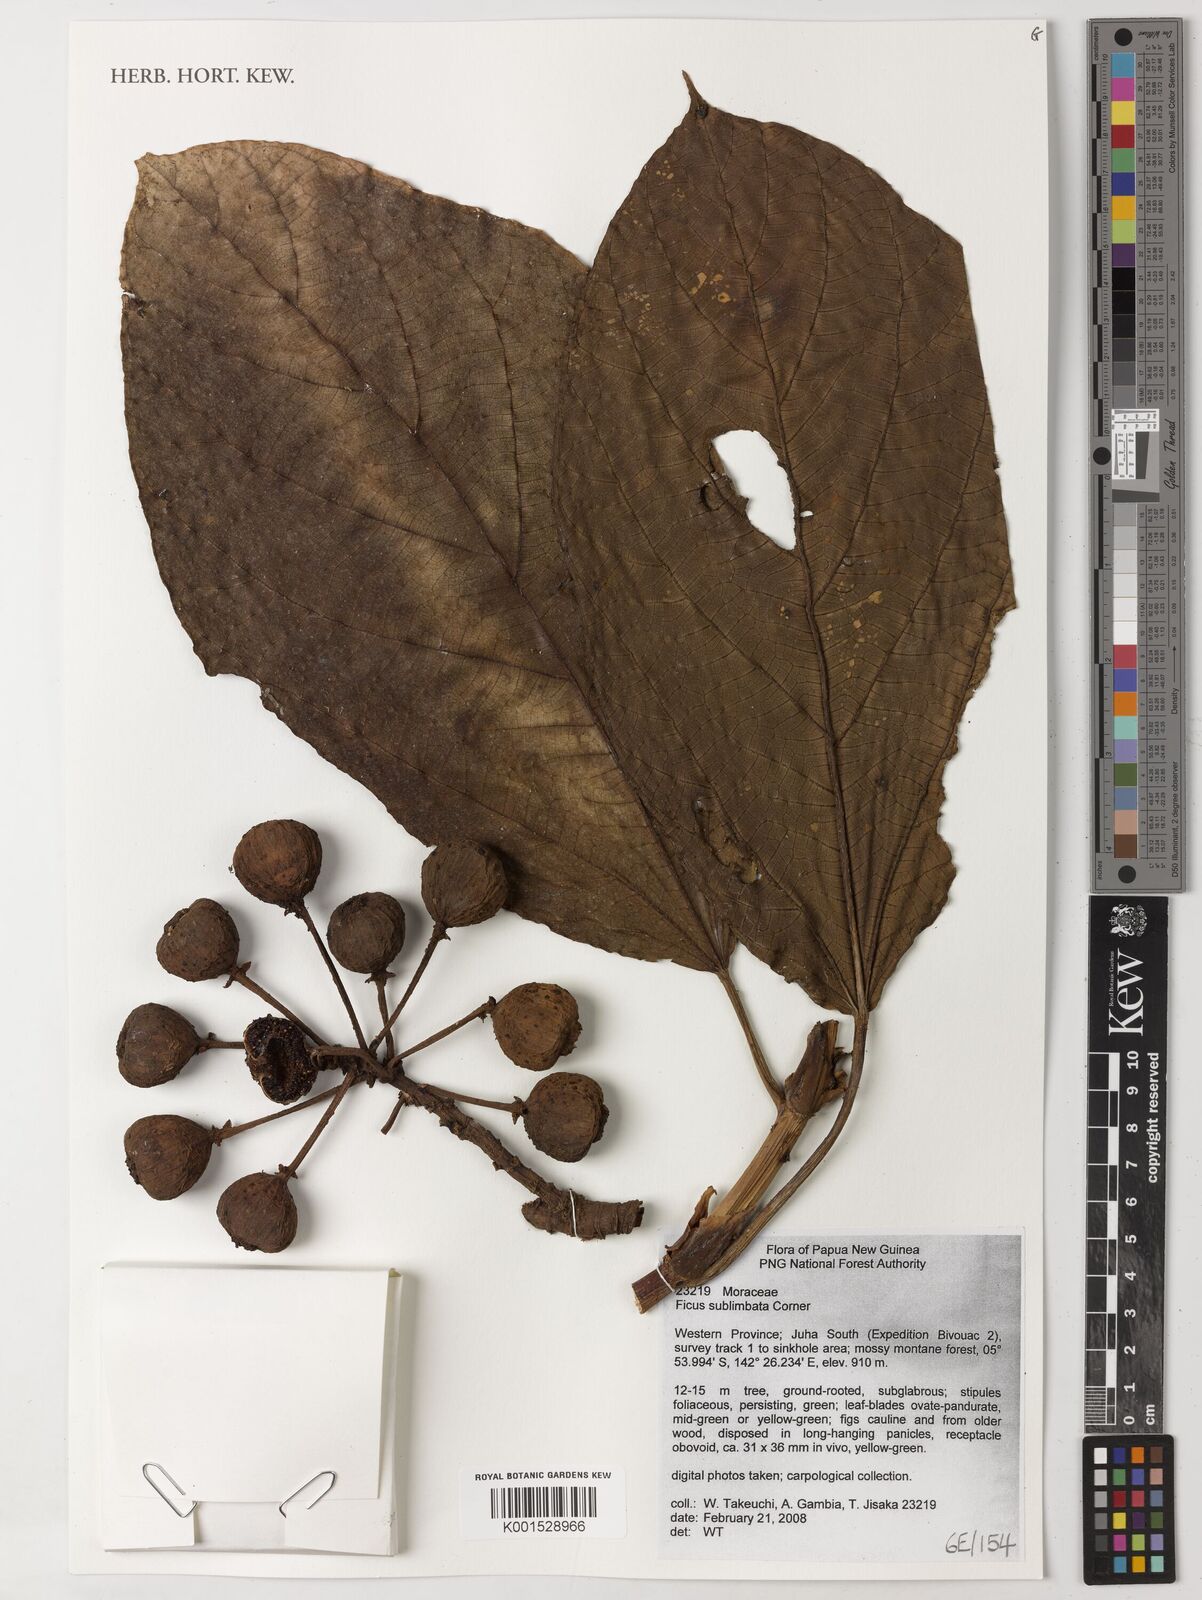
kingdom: Plantae
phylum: Tracheophyta
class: Magnoliopsida
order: Rosales
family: Moraceae
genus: Ficus
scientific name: Ficus sublimbata
